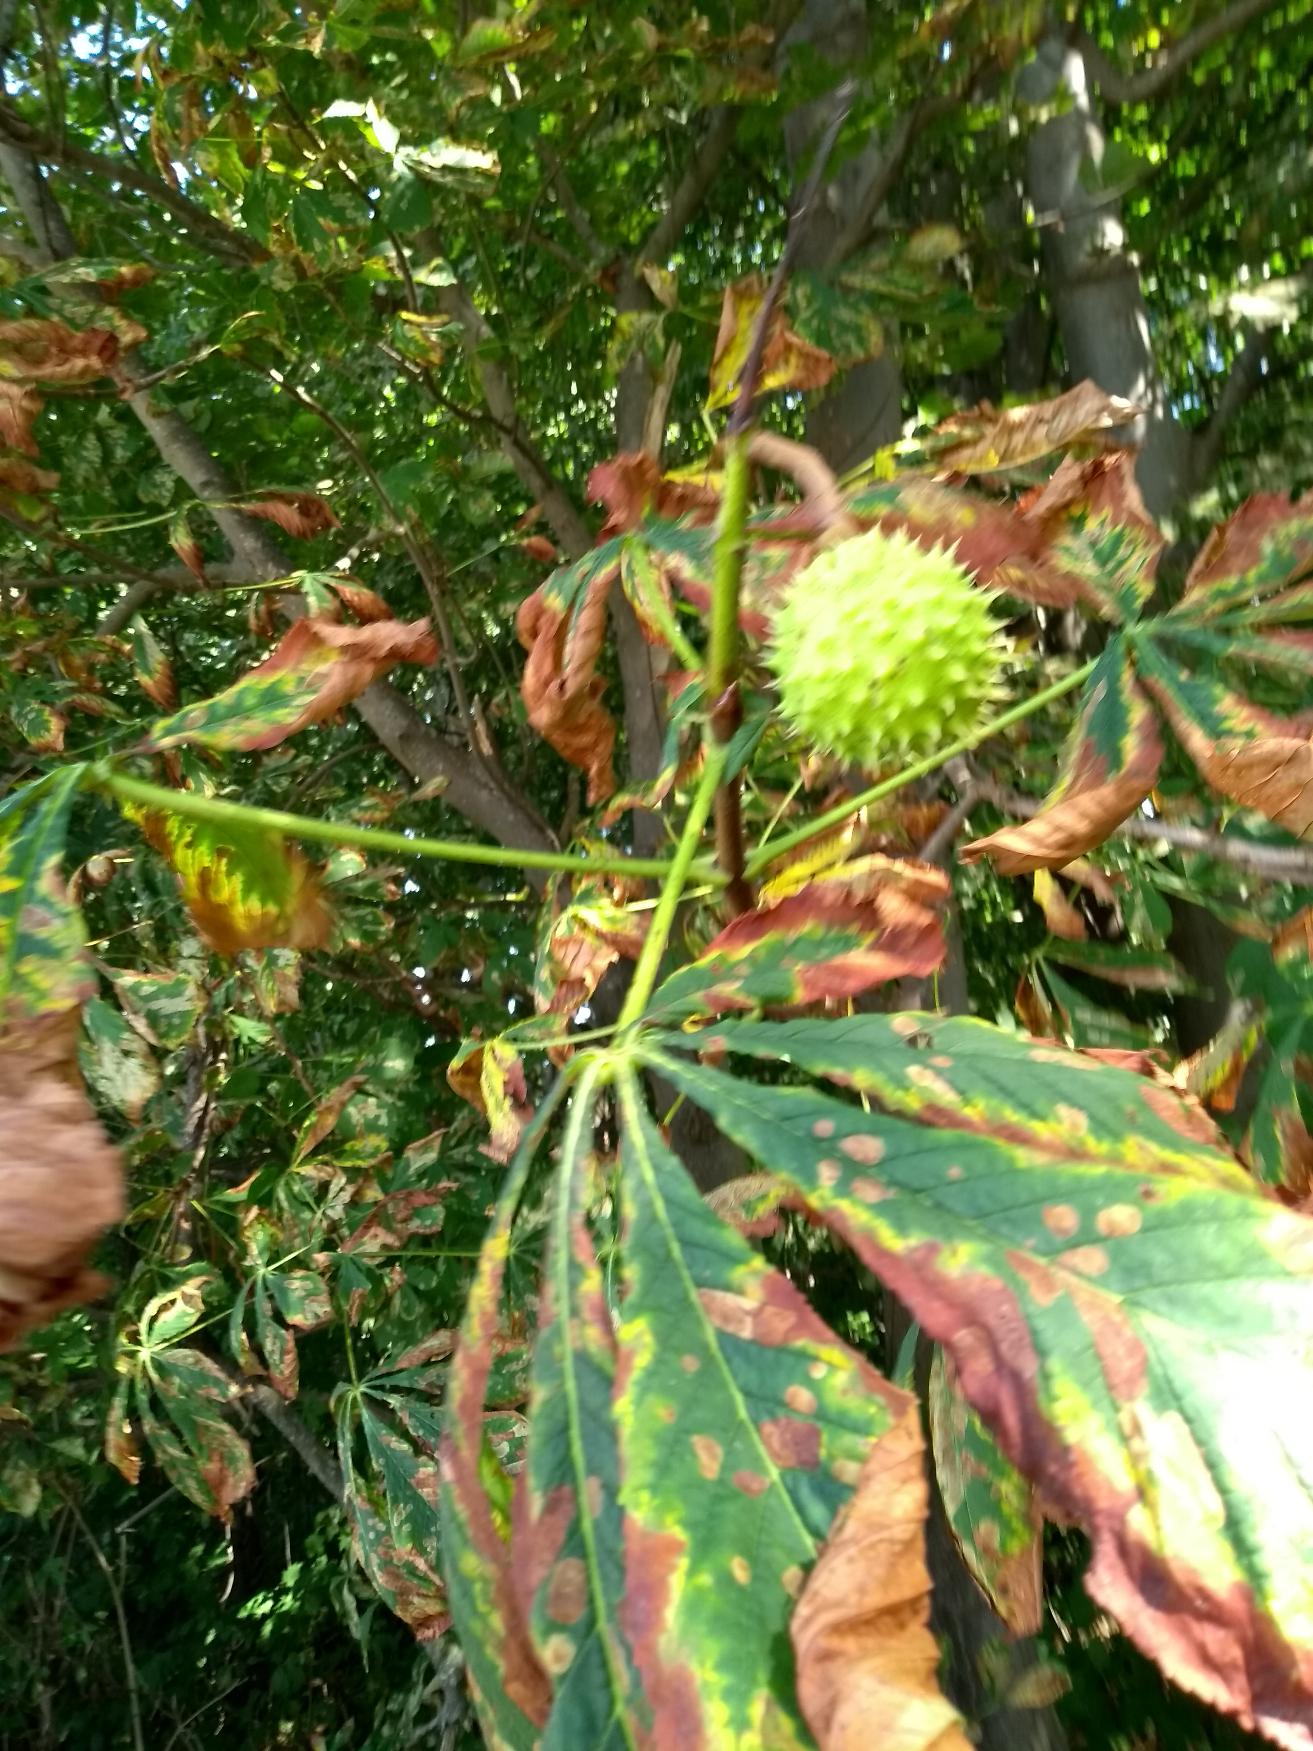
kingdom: Plantae
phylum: Tracheophyta
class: Magnoliopsida
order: Sapindales
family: Sapindaceae
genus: Aesculus
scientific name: Aesculus hippocastanum
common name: Hestekastanie
